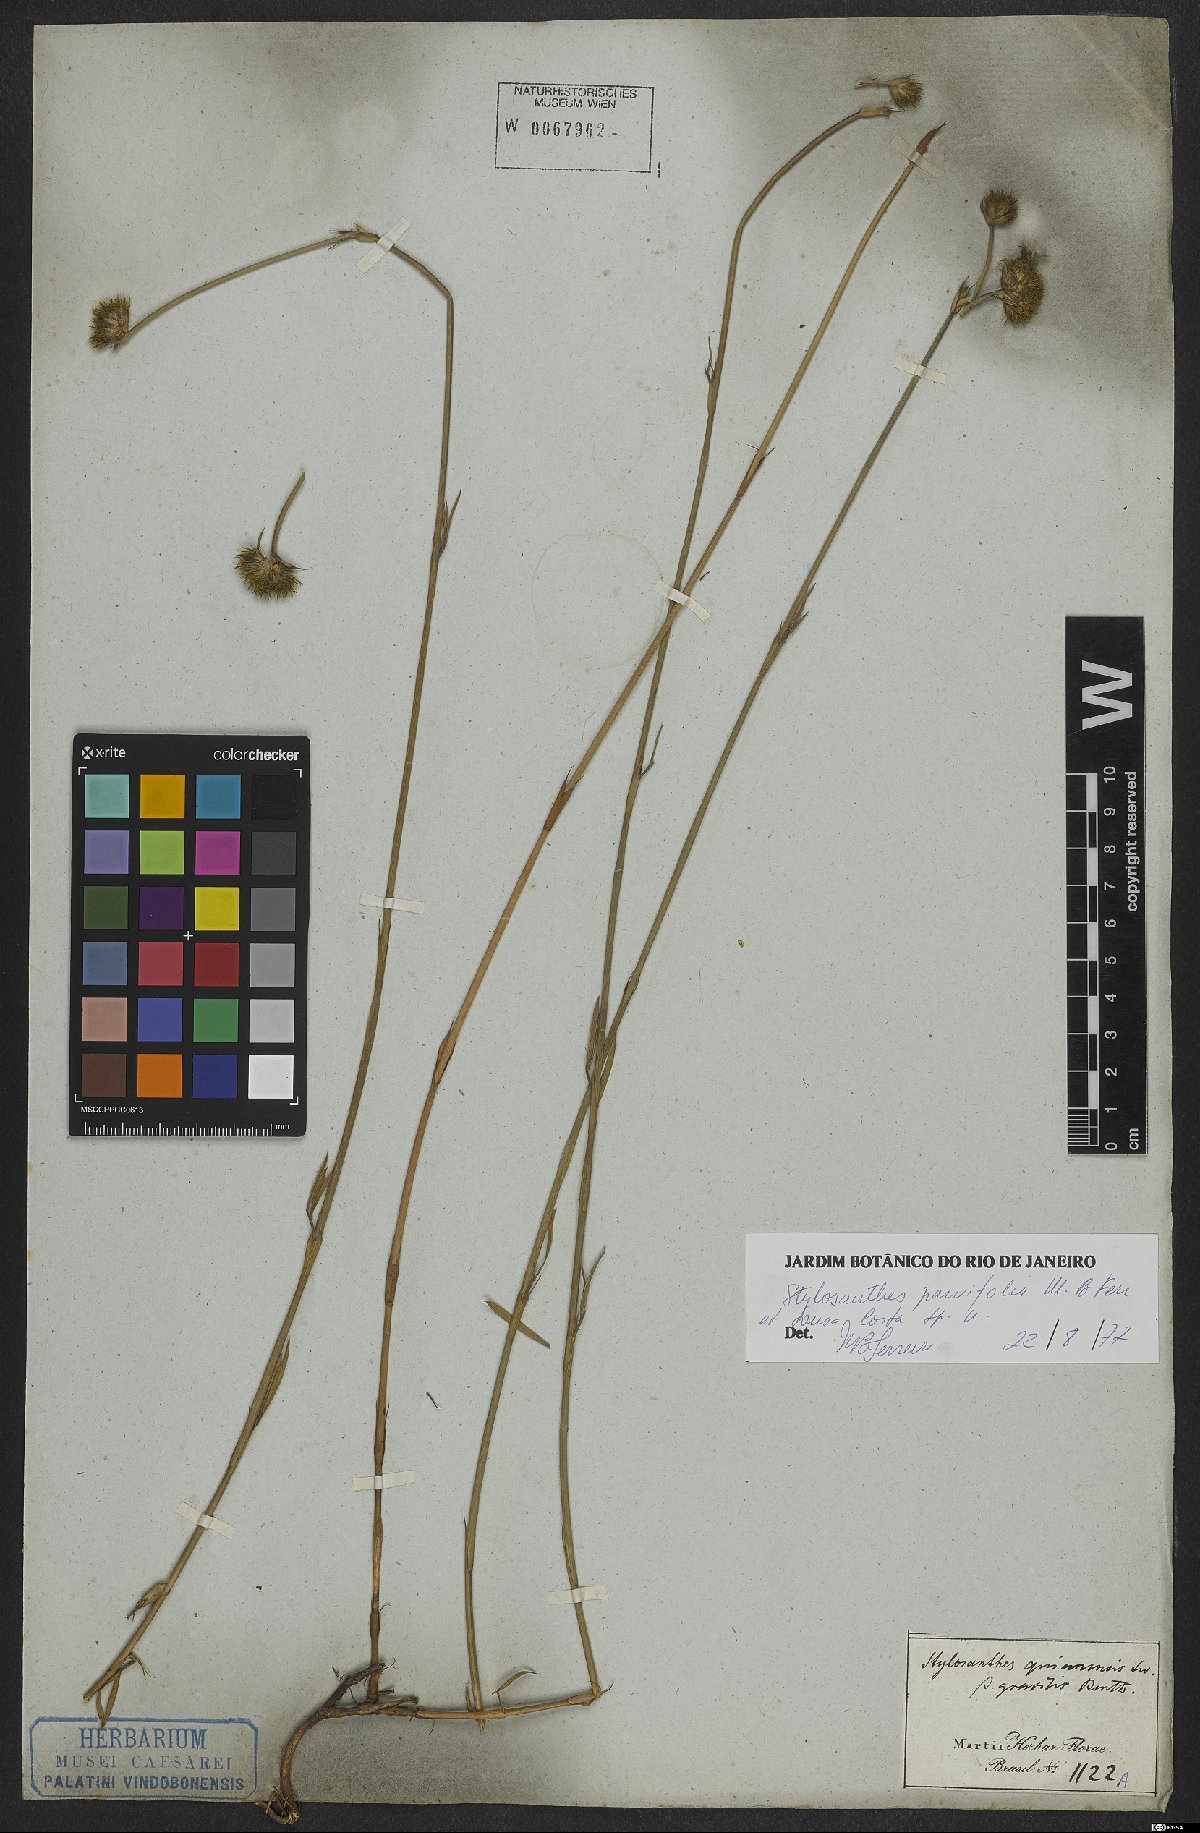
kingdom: Plantae
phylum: Tracheophyta
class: Magnoliopsida
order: Fabales
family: Fabaceae
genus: Stylosanthes
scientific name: Stylosanthes
